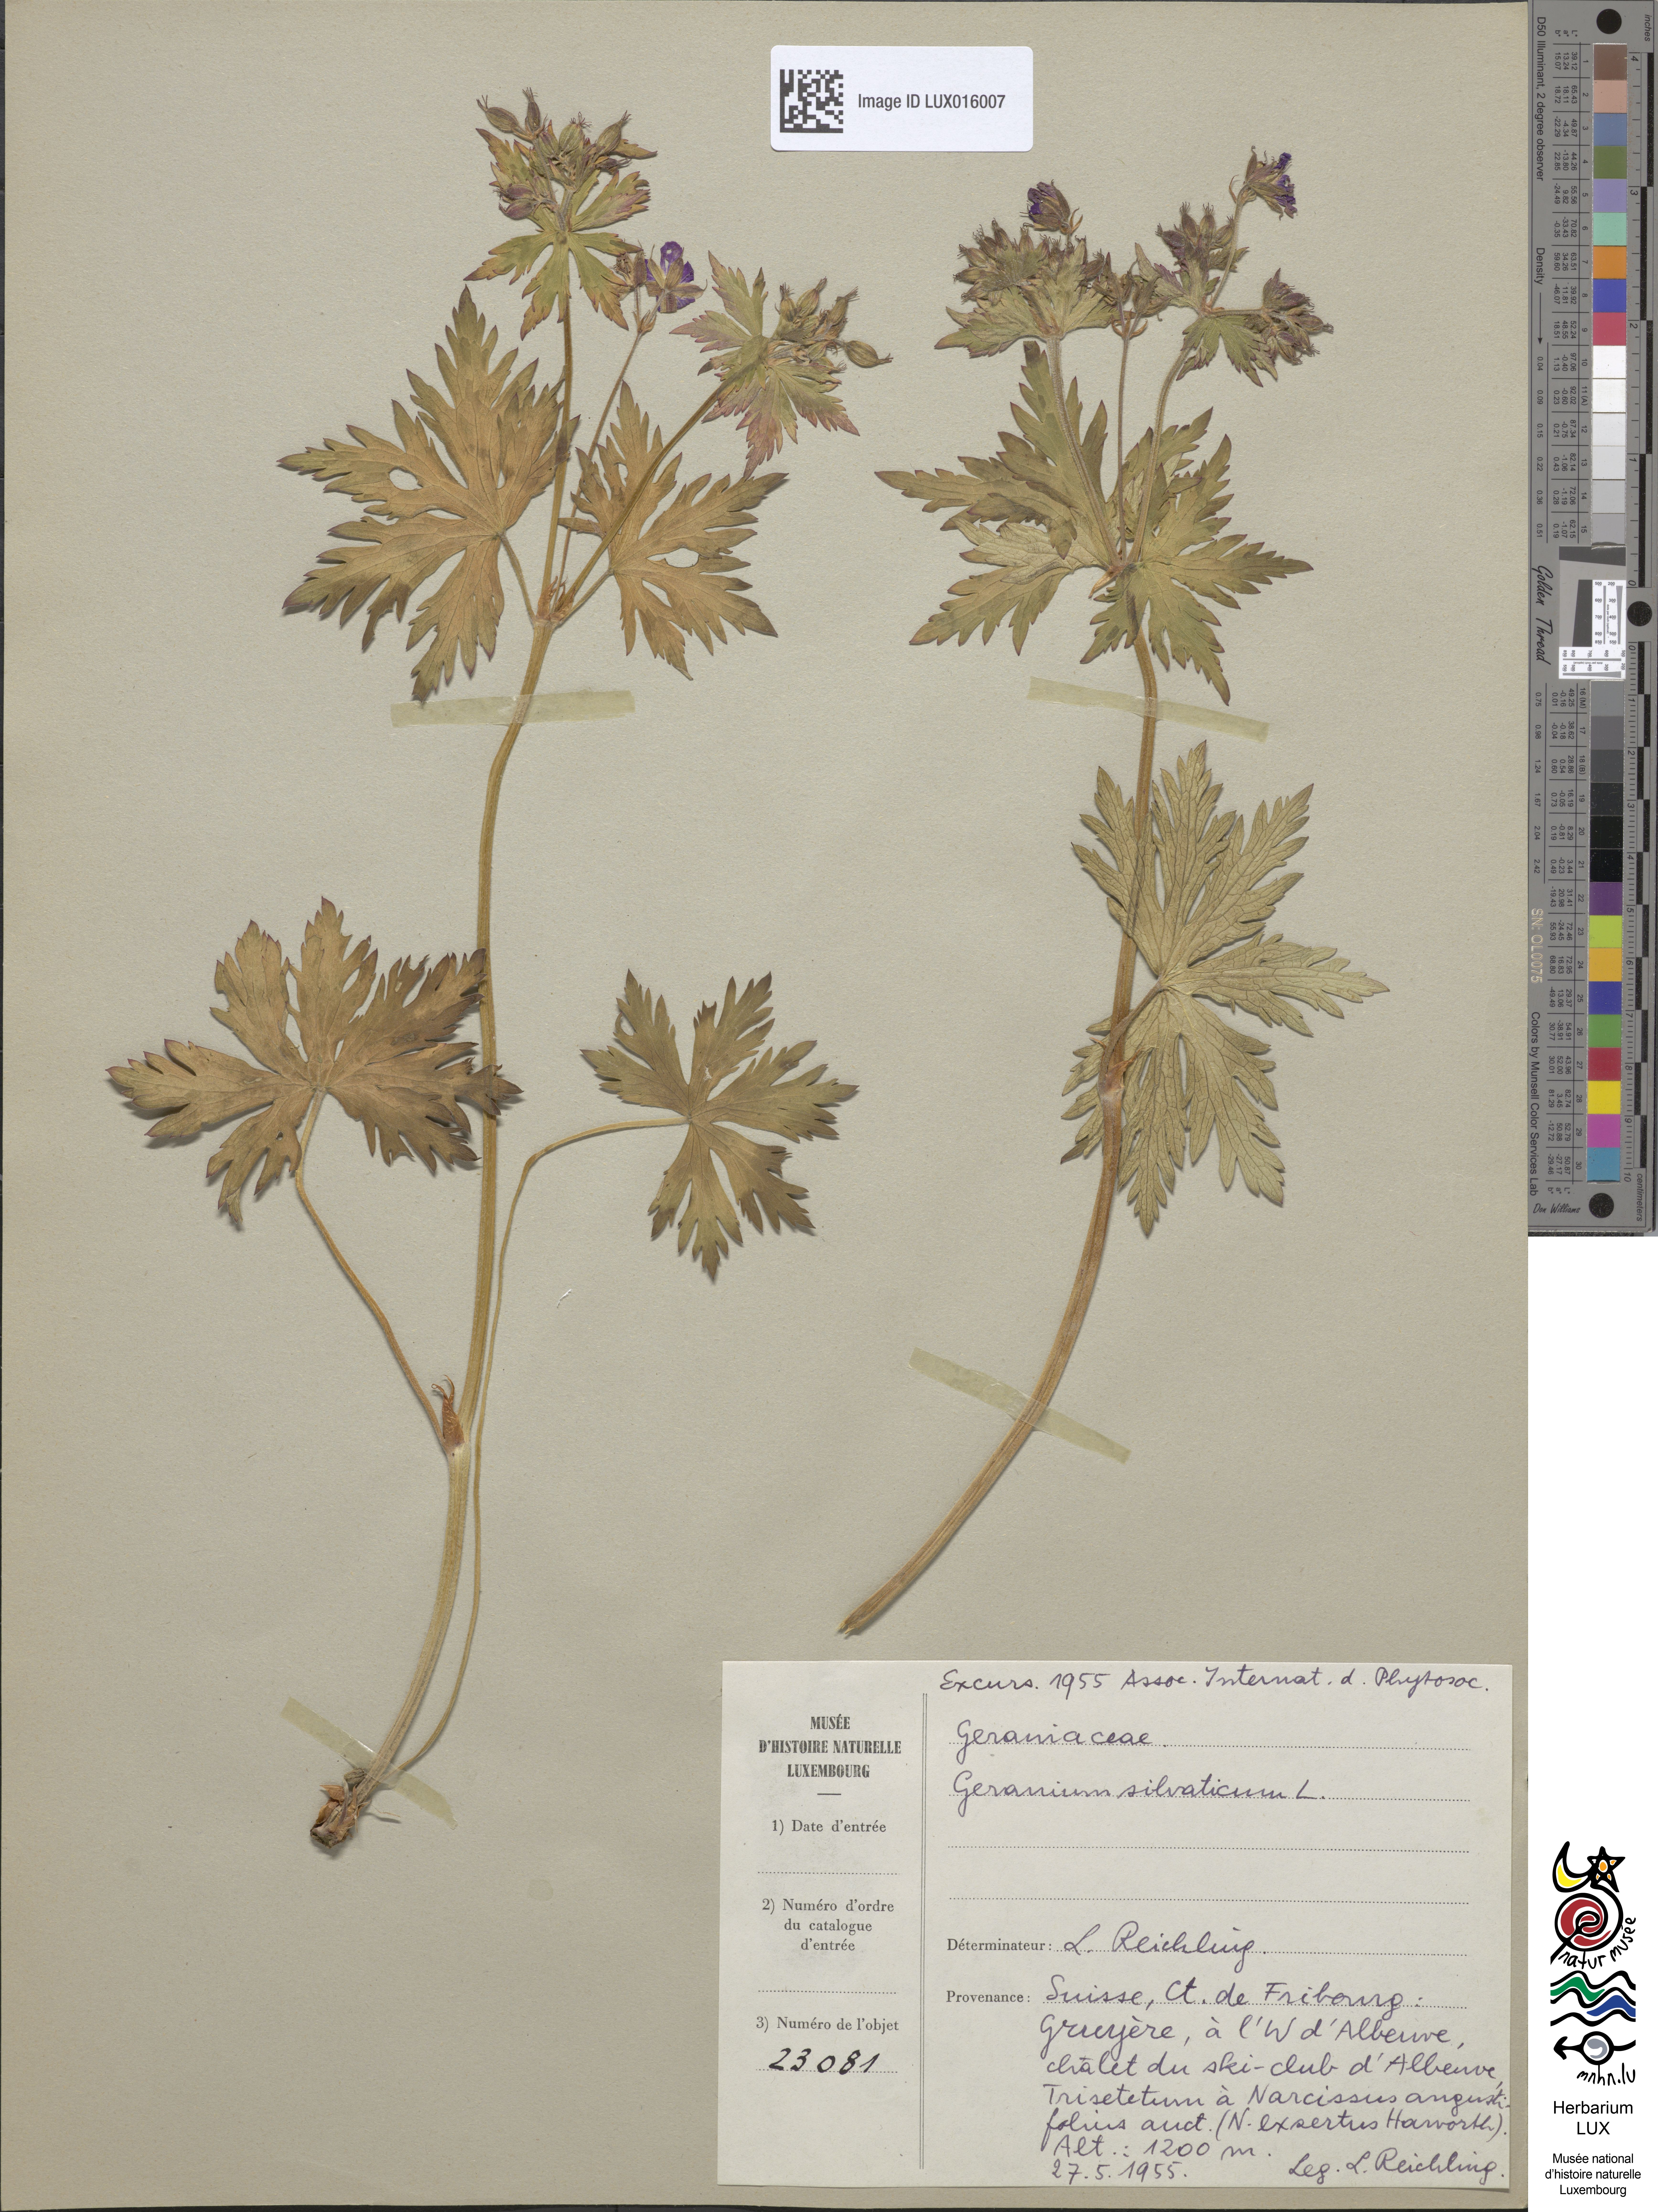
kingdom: Plantae
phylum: Tracheophyta
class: Magnoliopsida
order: Geraniales
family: Geraniaceae
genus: Geranium
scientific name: Geranium sylvaticum
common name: Wood crane's-bill
